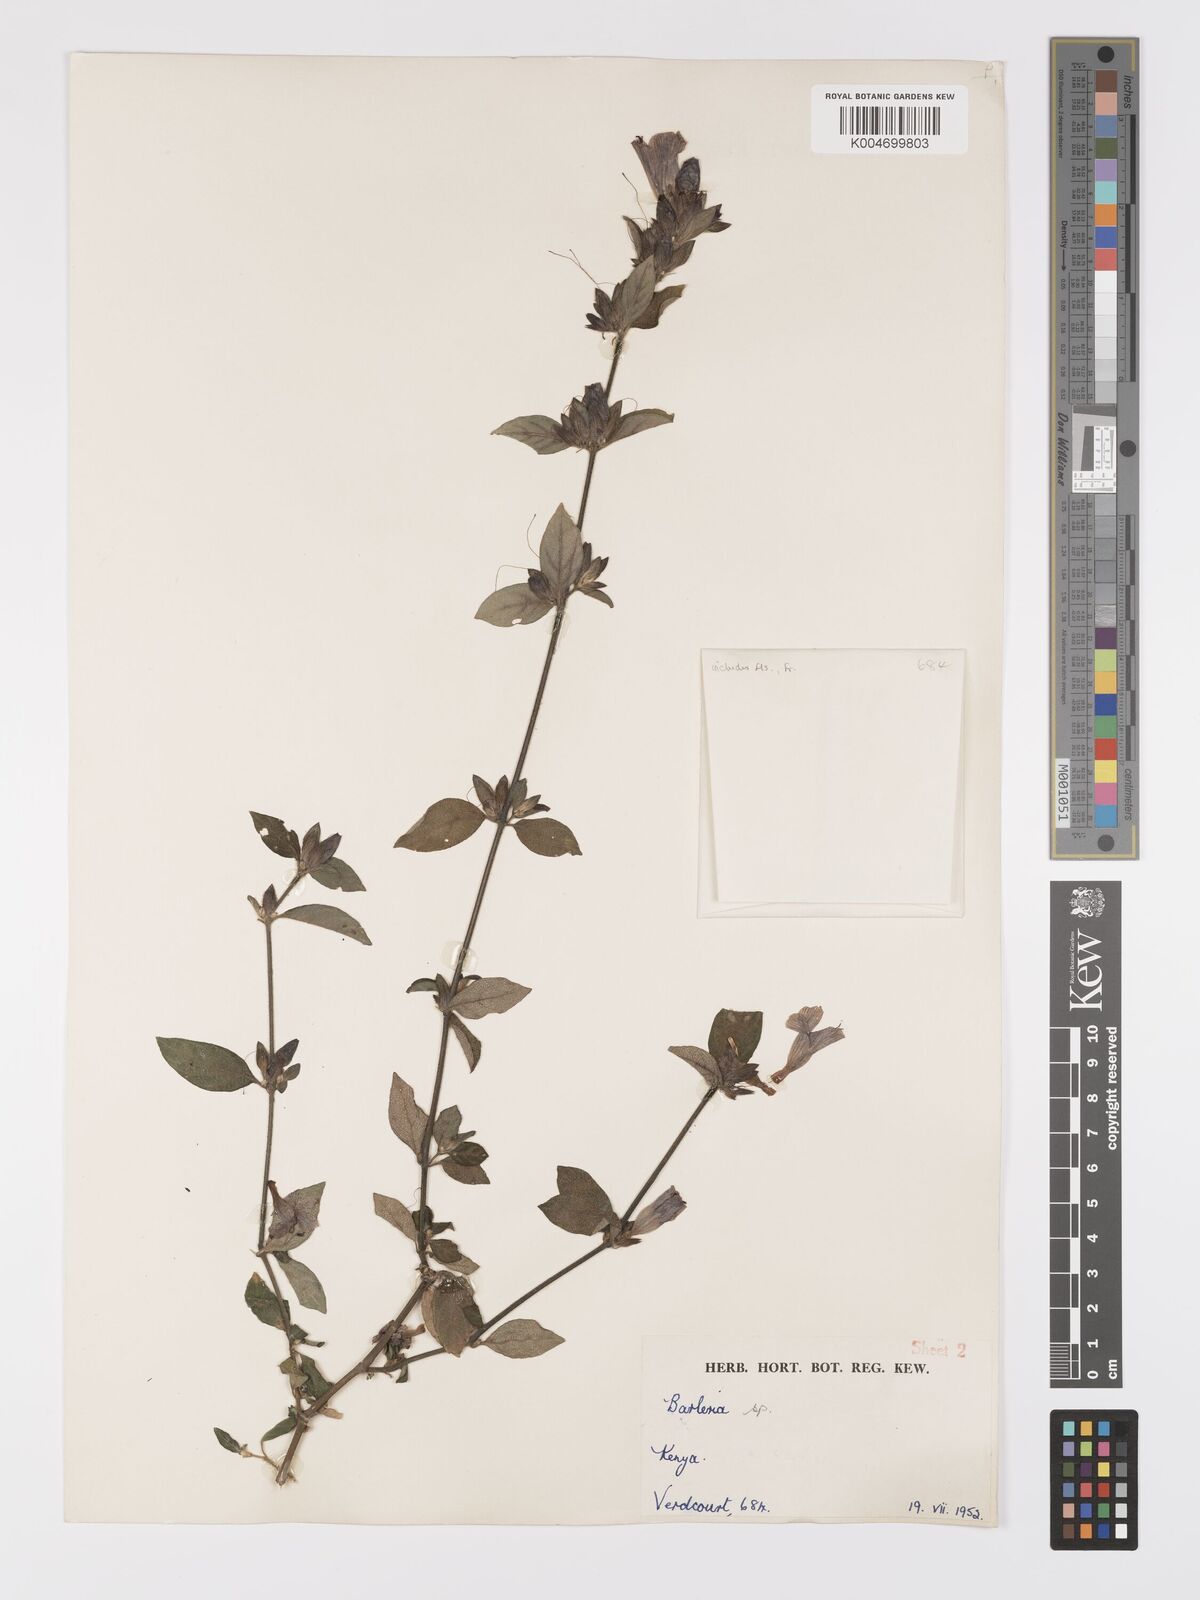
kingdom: Plantae
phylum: Tracheophyta
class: Magnoliopsida
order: Lamiales
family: Acanthaceae
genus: Barleria
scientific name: Barleria ventricosa
